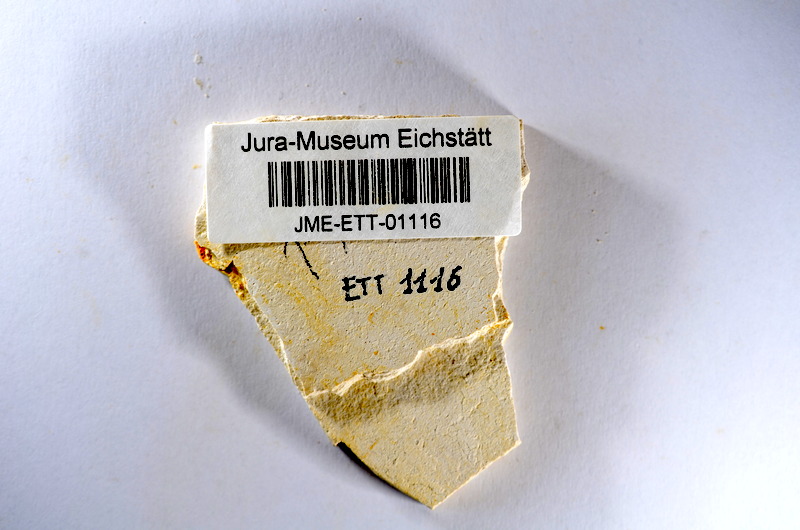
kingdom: Animalia
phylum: Chordata
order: Salmoniformes
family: Orthogonikleithridae
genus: Orthogonikleithrus
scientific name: Orthogonikleithrus hoelli
